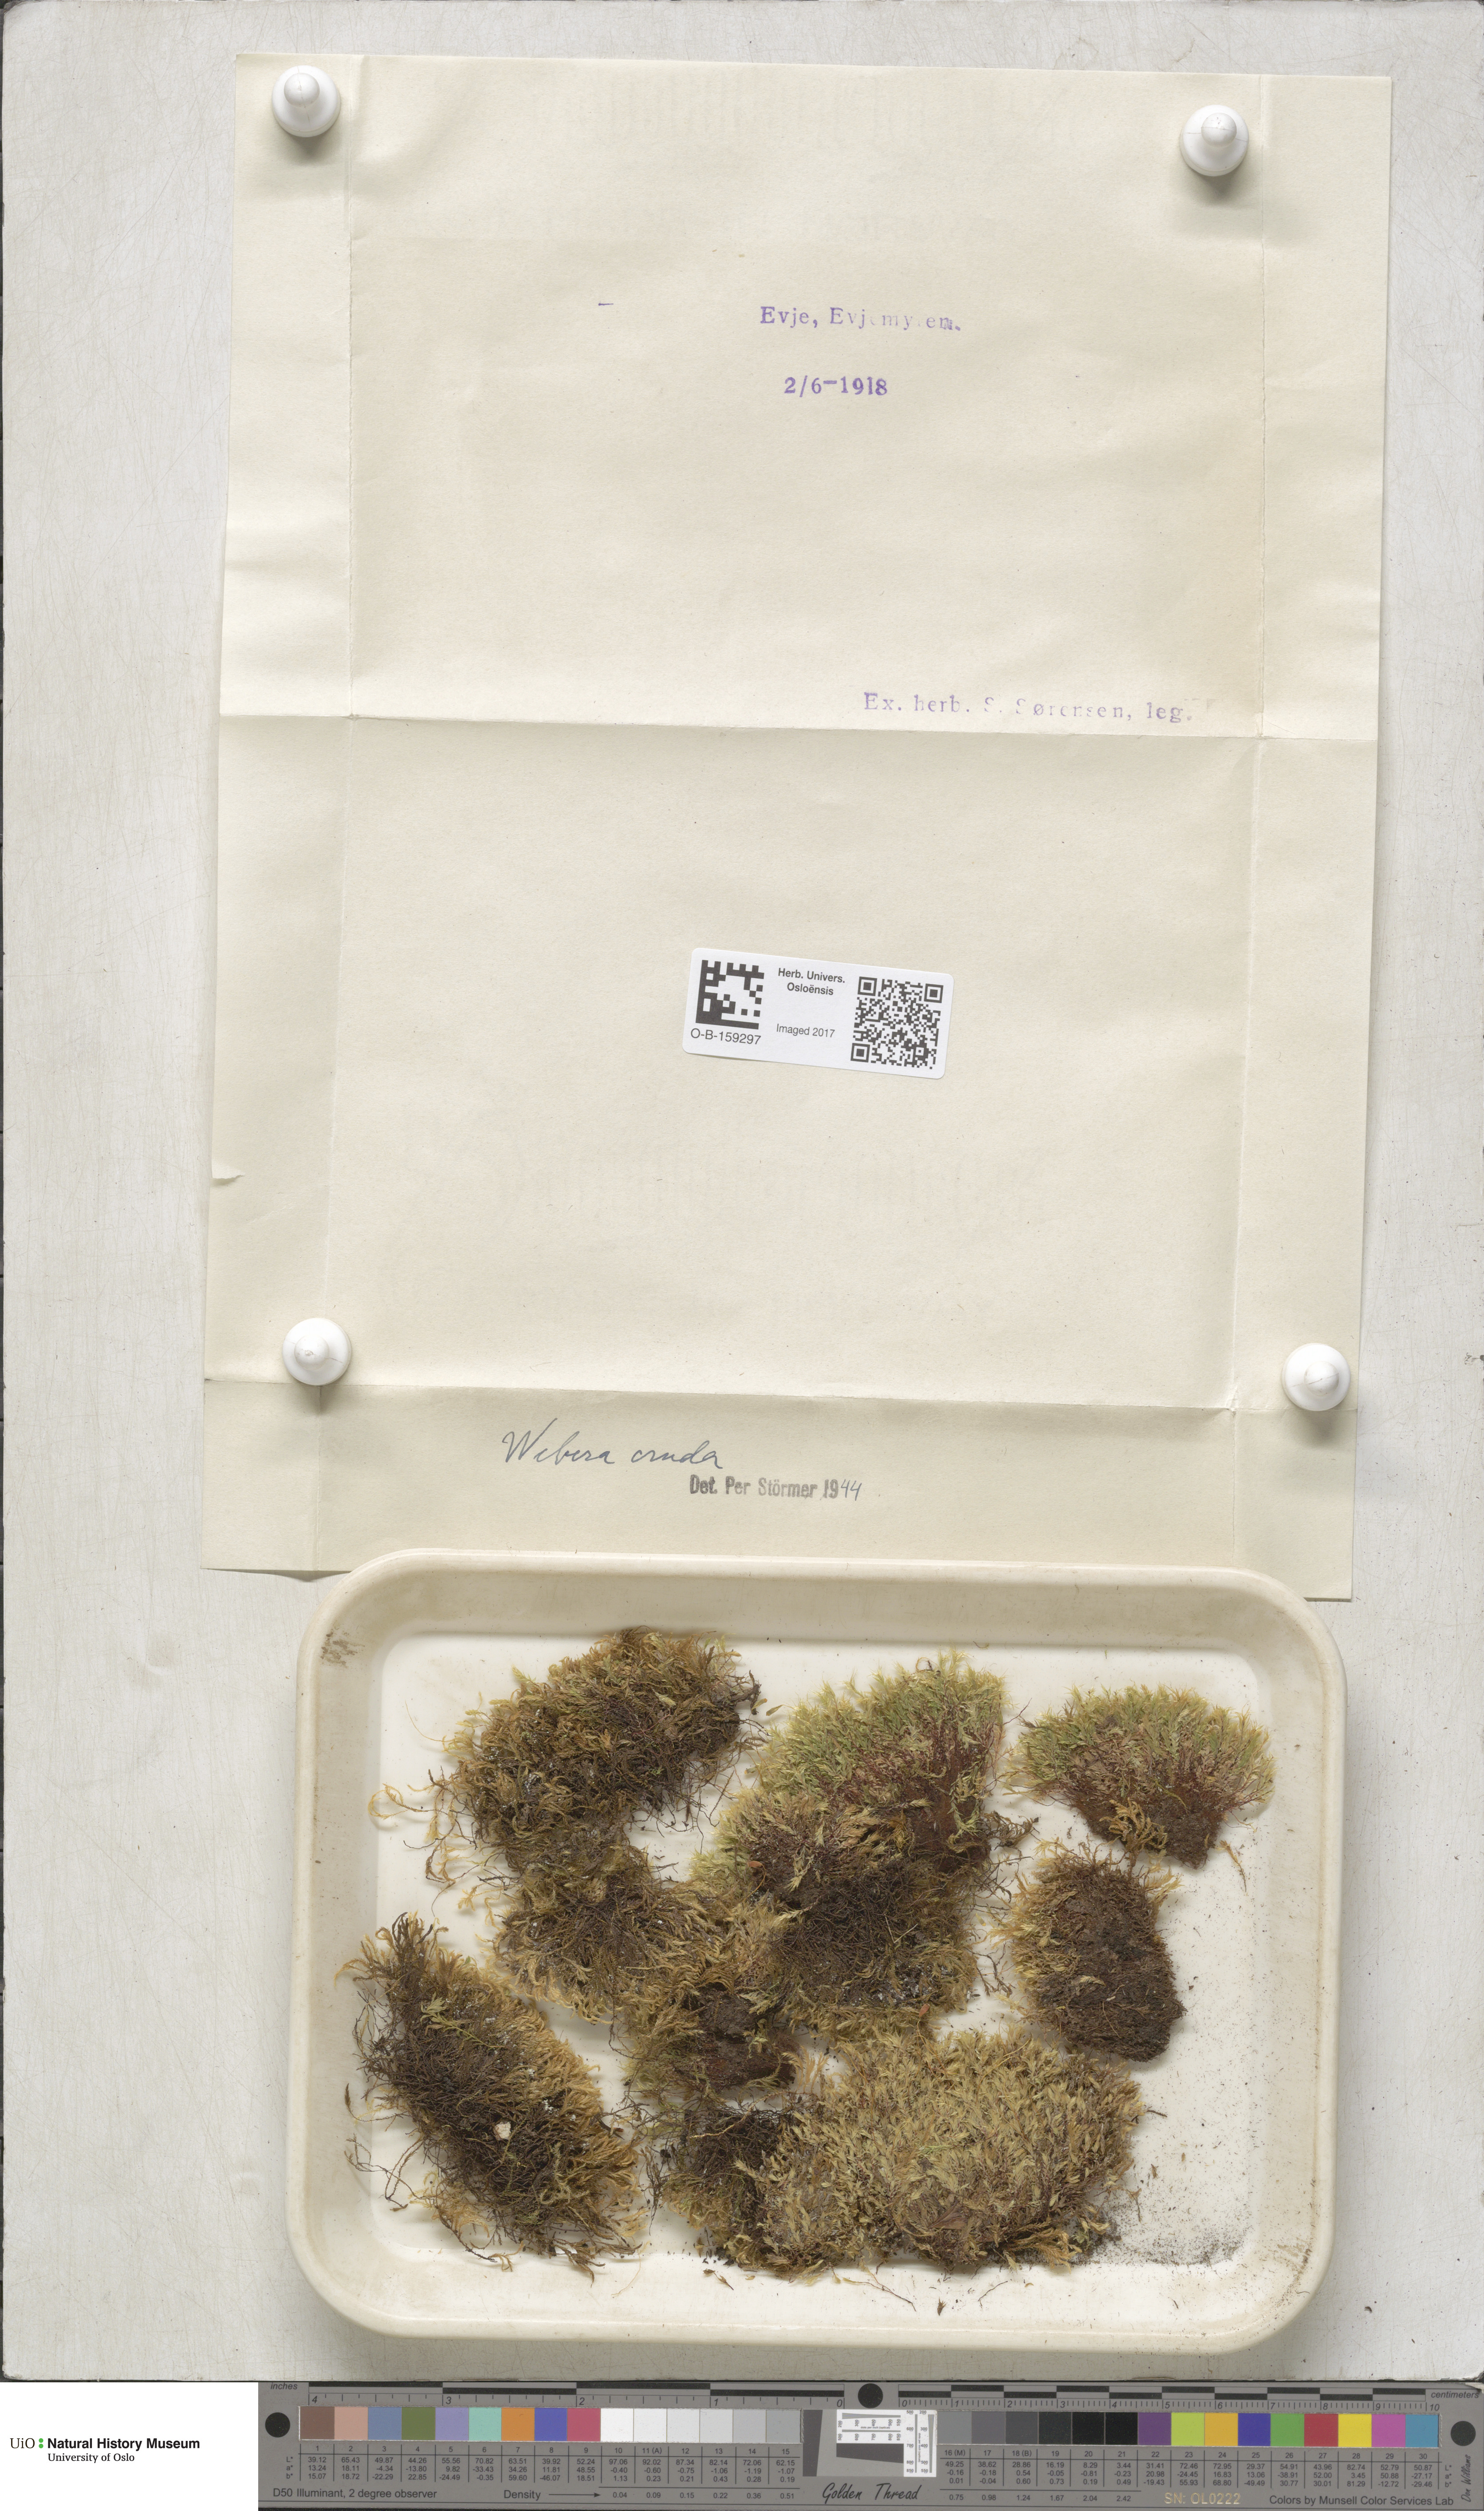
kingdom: Plantae
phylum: Bryophyta
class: Bryopsida
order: Bryales
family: Mniaceae
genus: Pohlia
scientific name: Pohlia cruda
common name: Opal nodding moss
